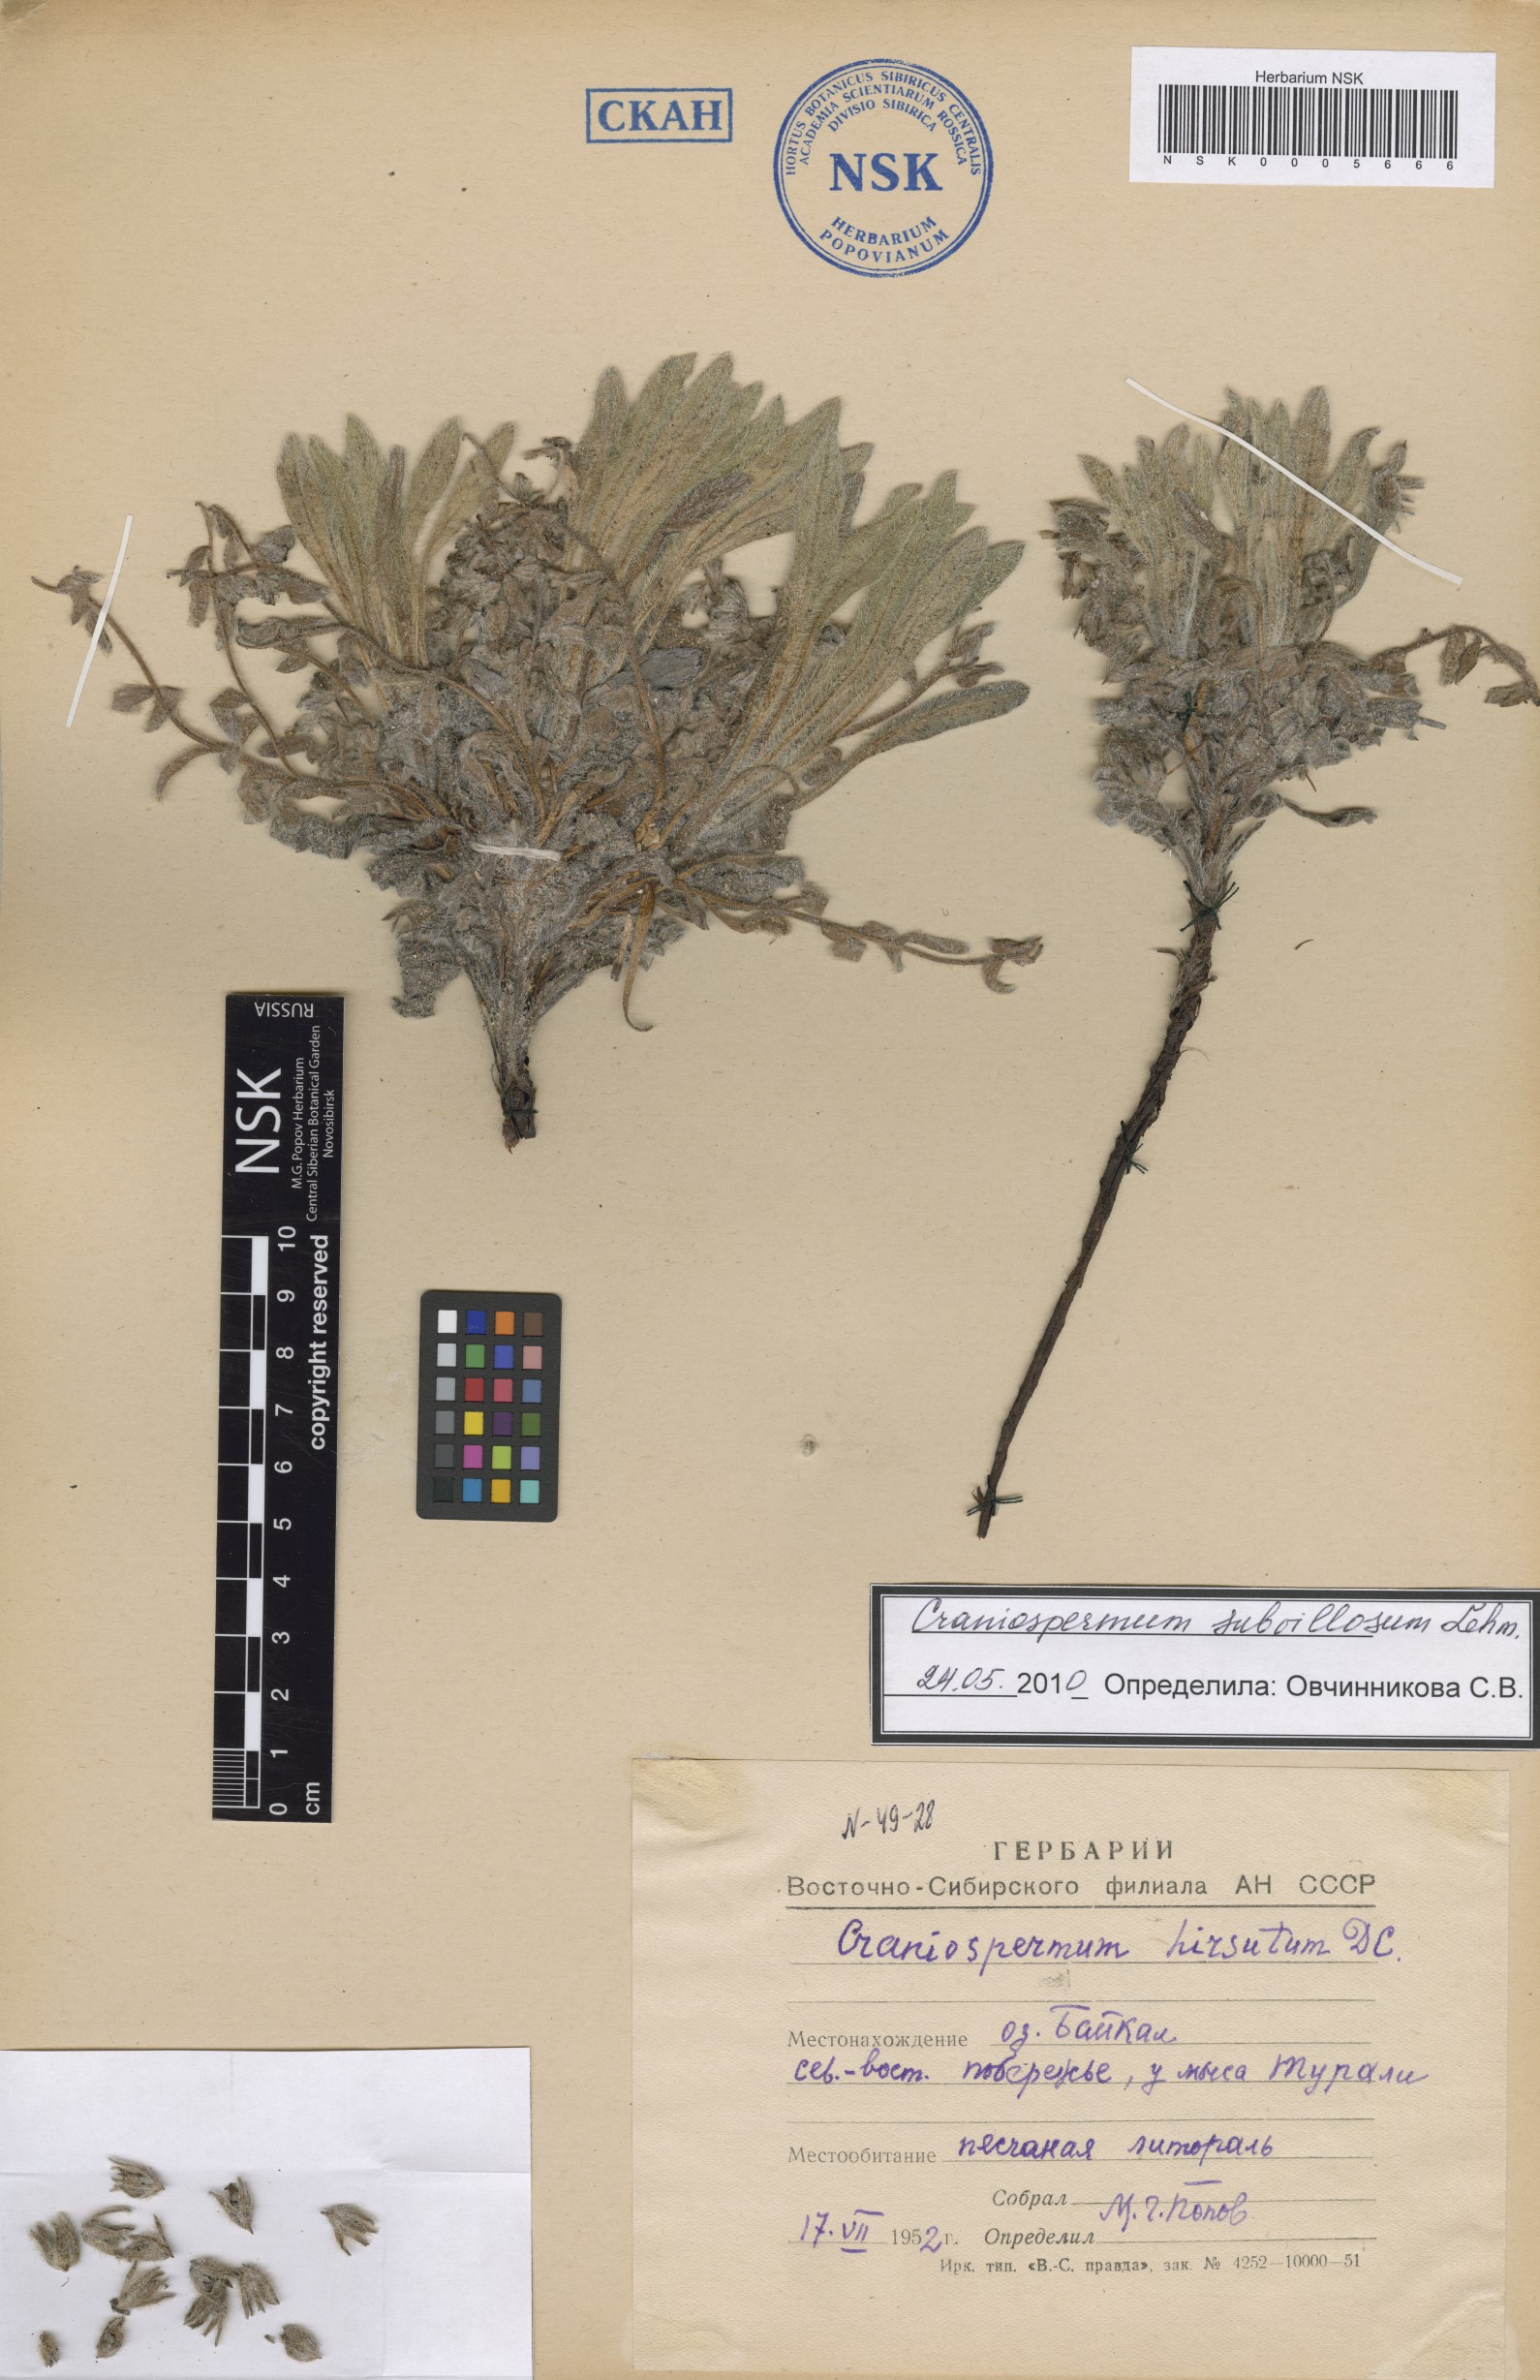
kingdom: Plantae
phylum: Tracheophyta
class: Magnoliopsida
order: Boraginales
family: Boraginaceae
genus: Craniospermum
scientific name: Craniospermum subvillosum
